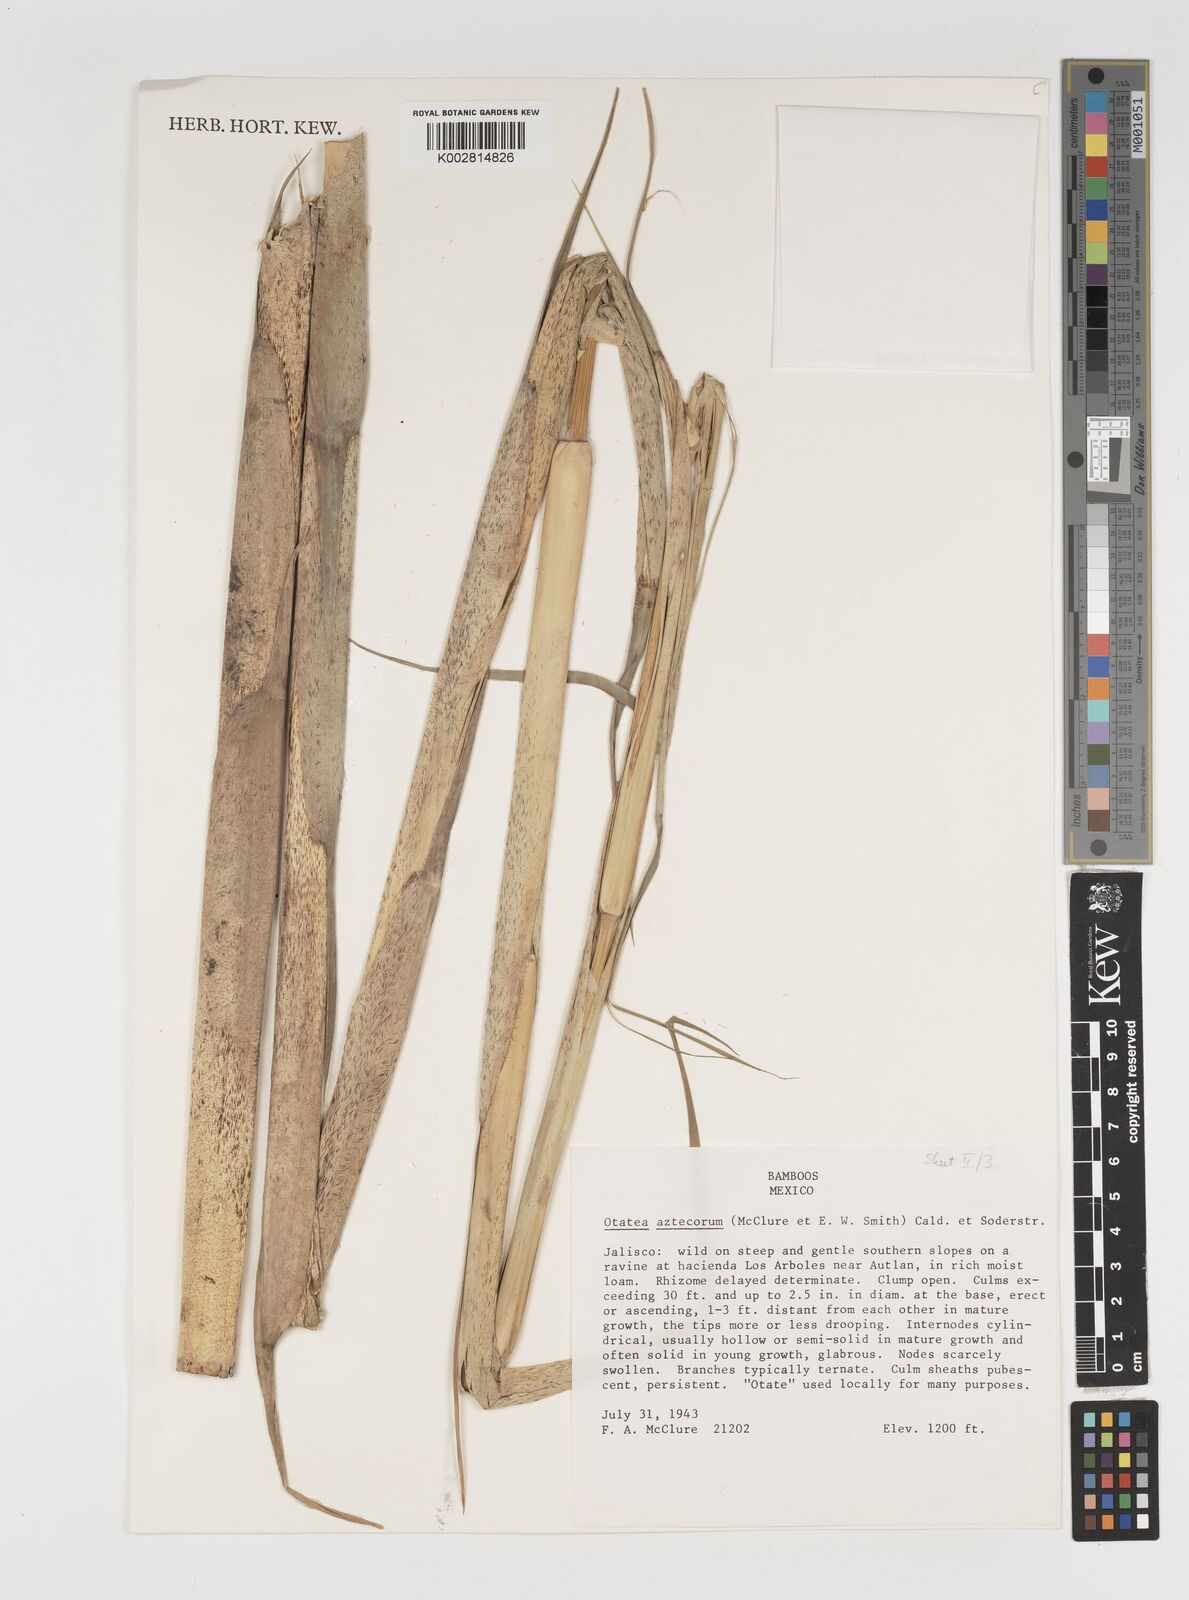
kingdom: Plantae
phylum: Tracheophyta
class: Liliopsida
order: Poales
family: Poaceae
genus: Olmeca
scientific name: Olmeca
